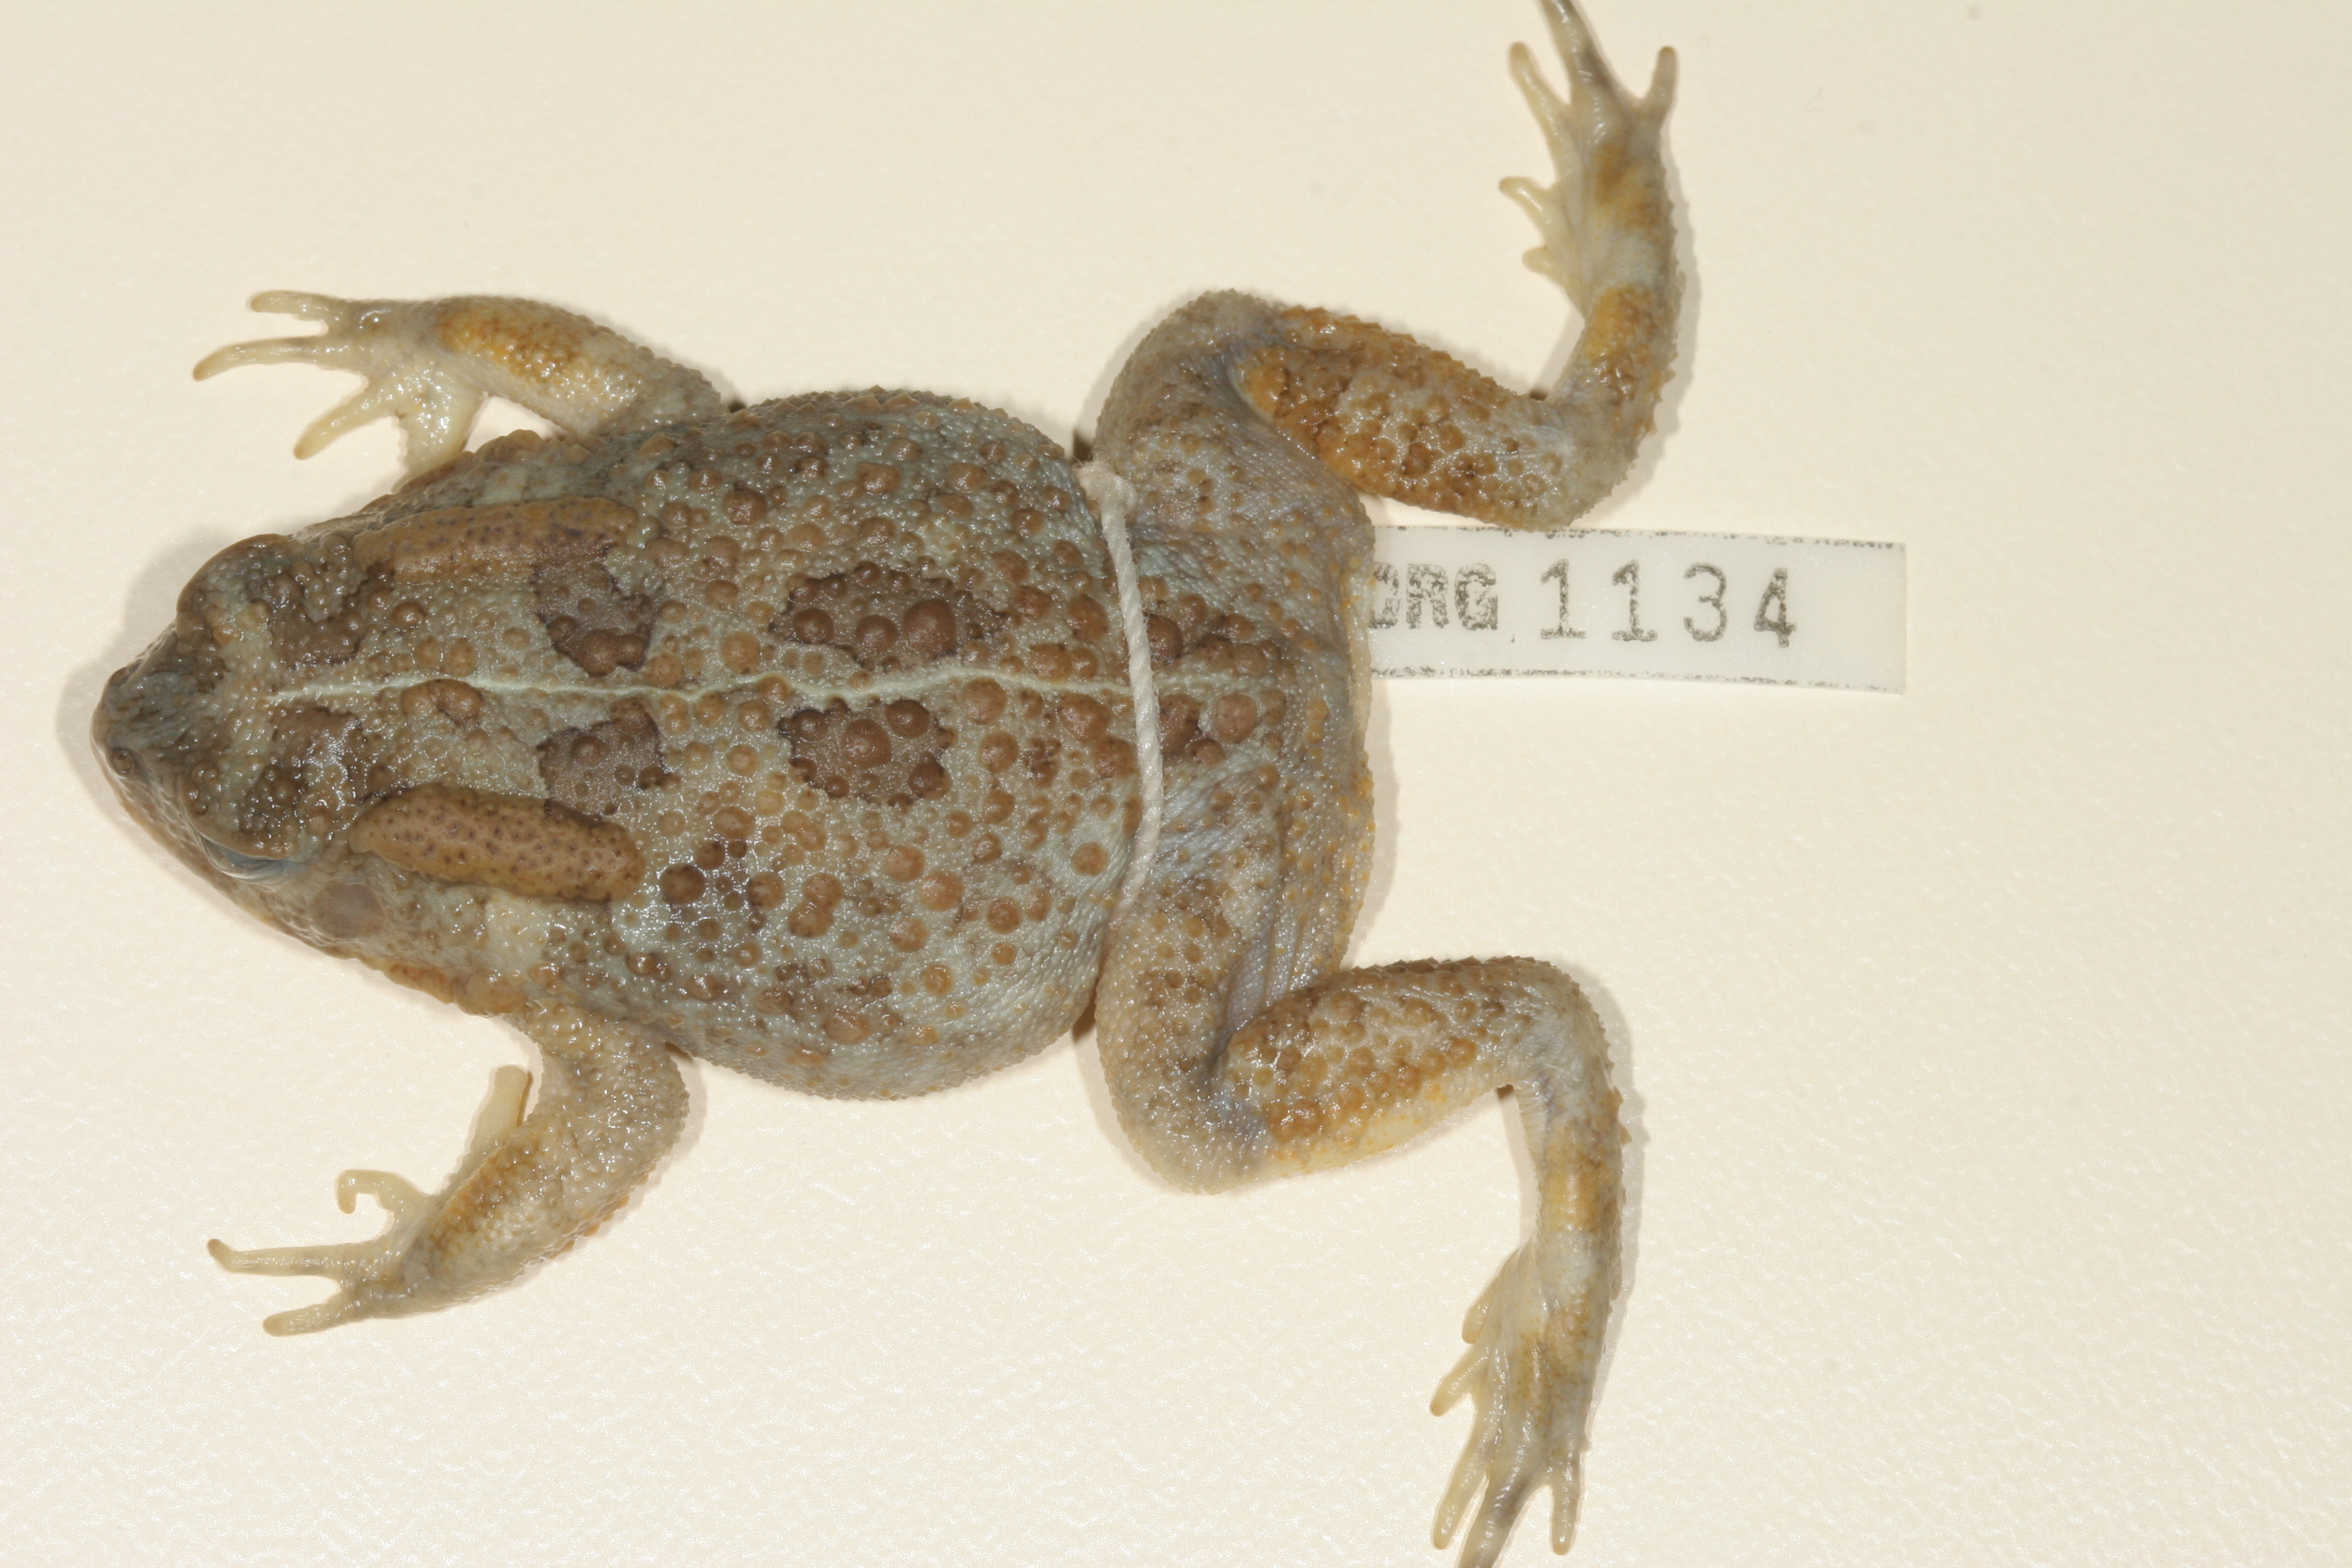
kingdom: Animalia
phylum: Chordata
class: Amphibia
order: Anura
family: Bufonidae
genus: Sclerophrys
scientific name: Sclerophrys gutturalis
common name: African common toad
